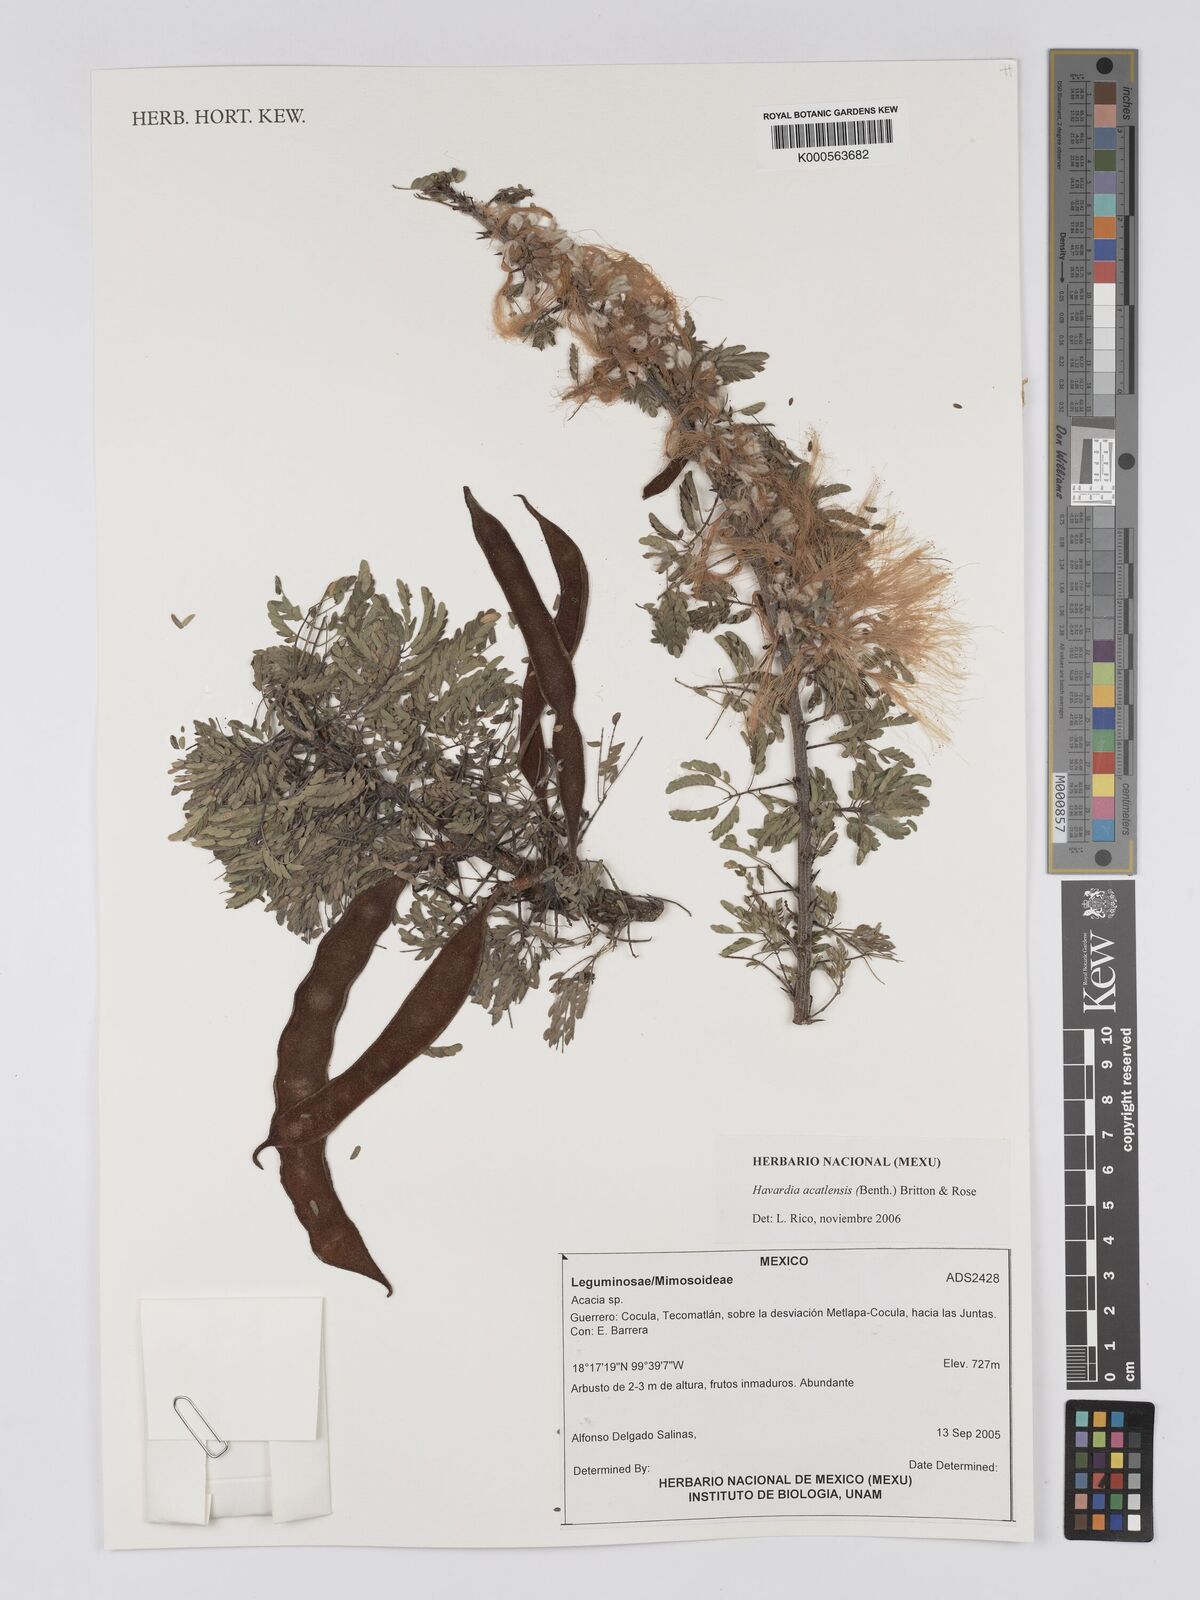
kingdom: Plantae
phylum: Tracheophyta
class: Magnoliopsida
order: Fabales
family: Fabaceae
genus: Havardia
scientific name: Havardia acatlensis
